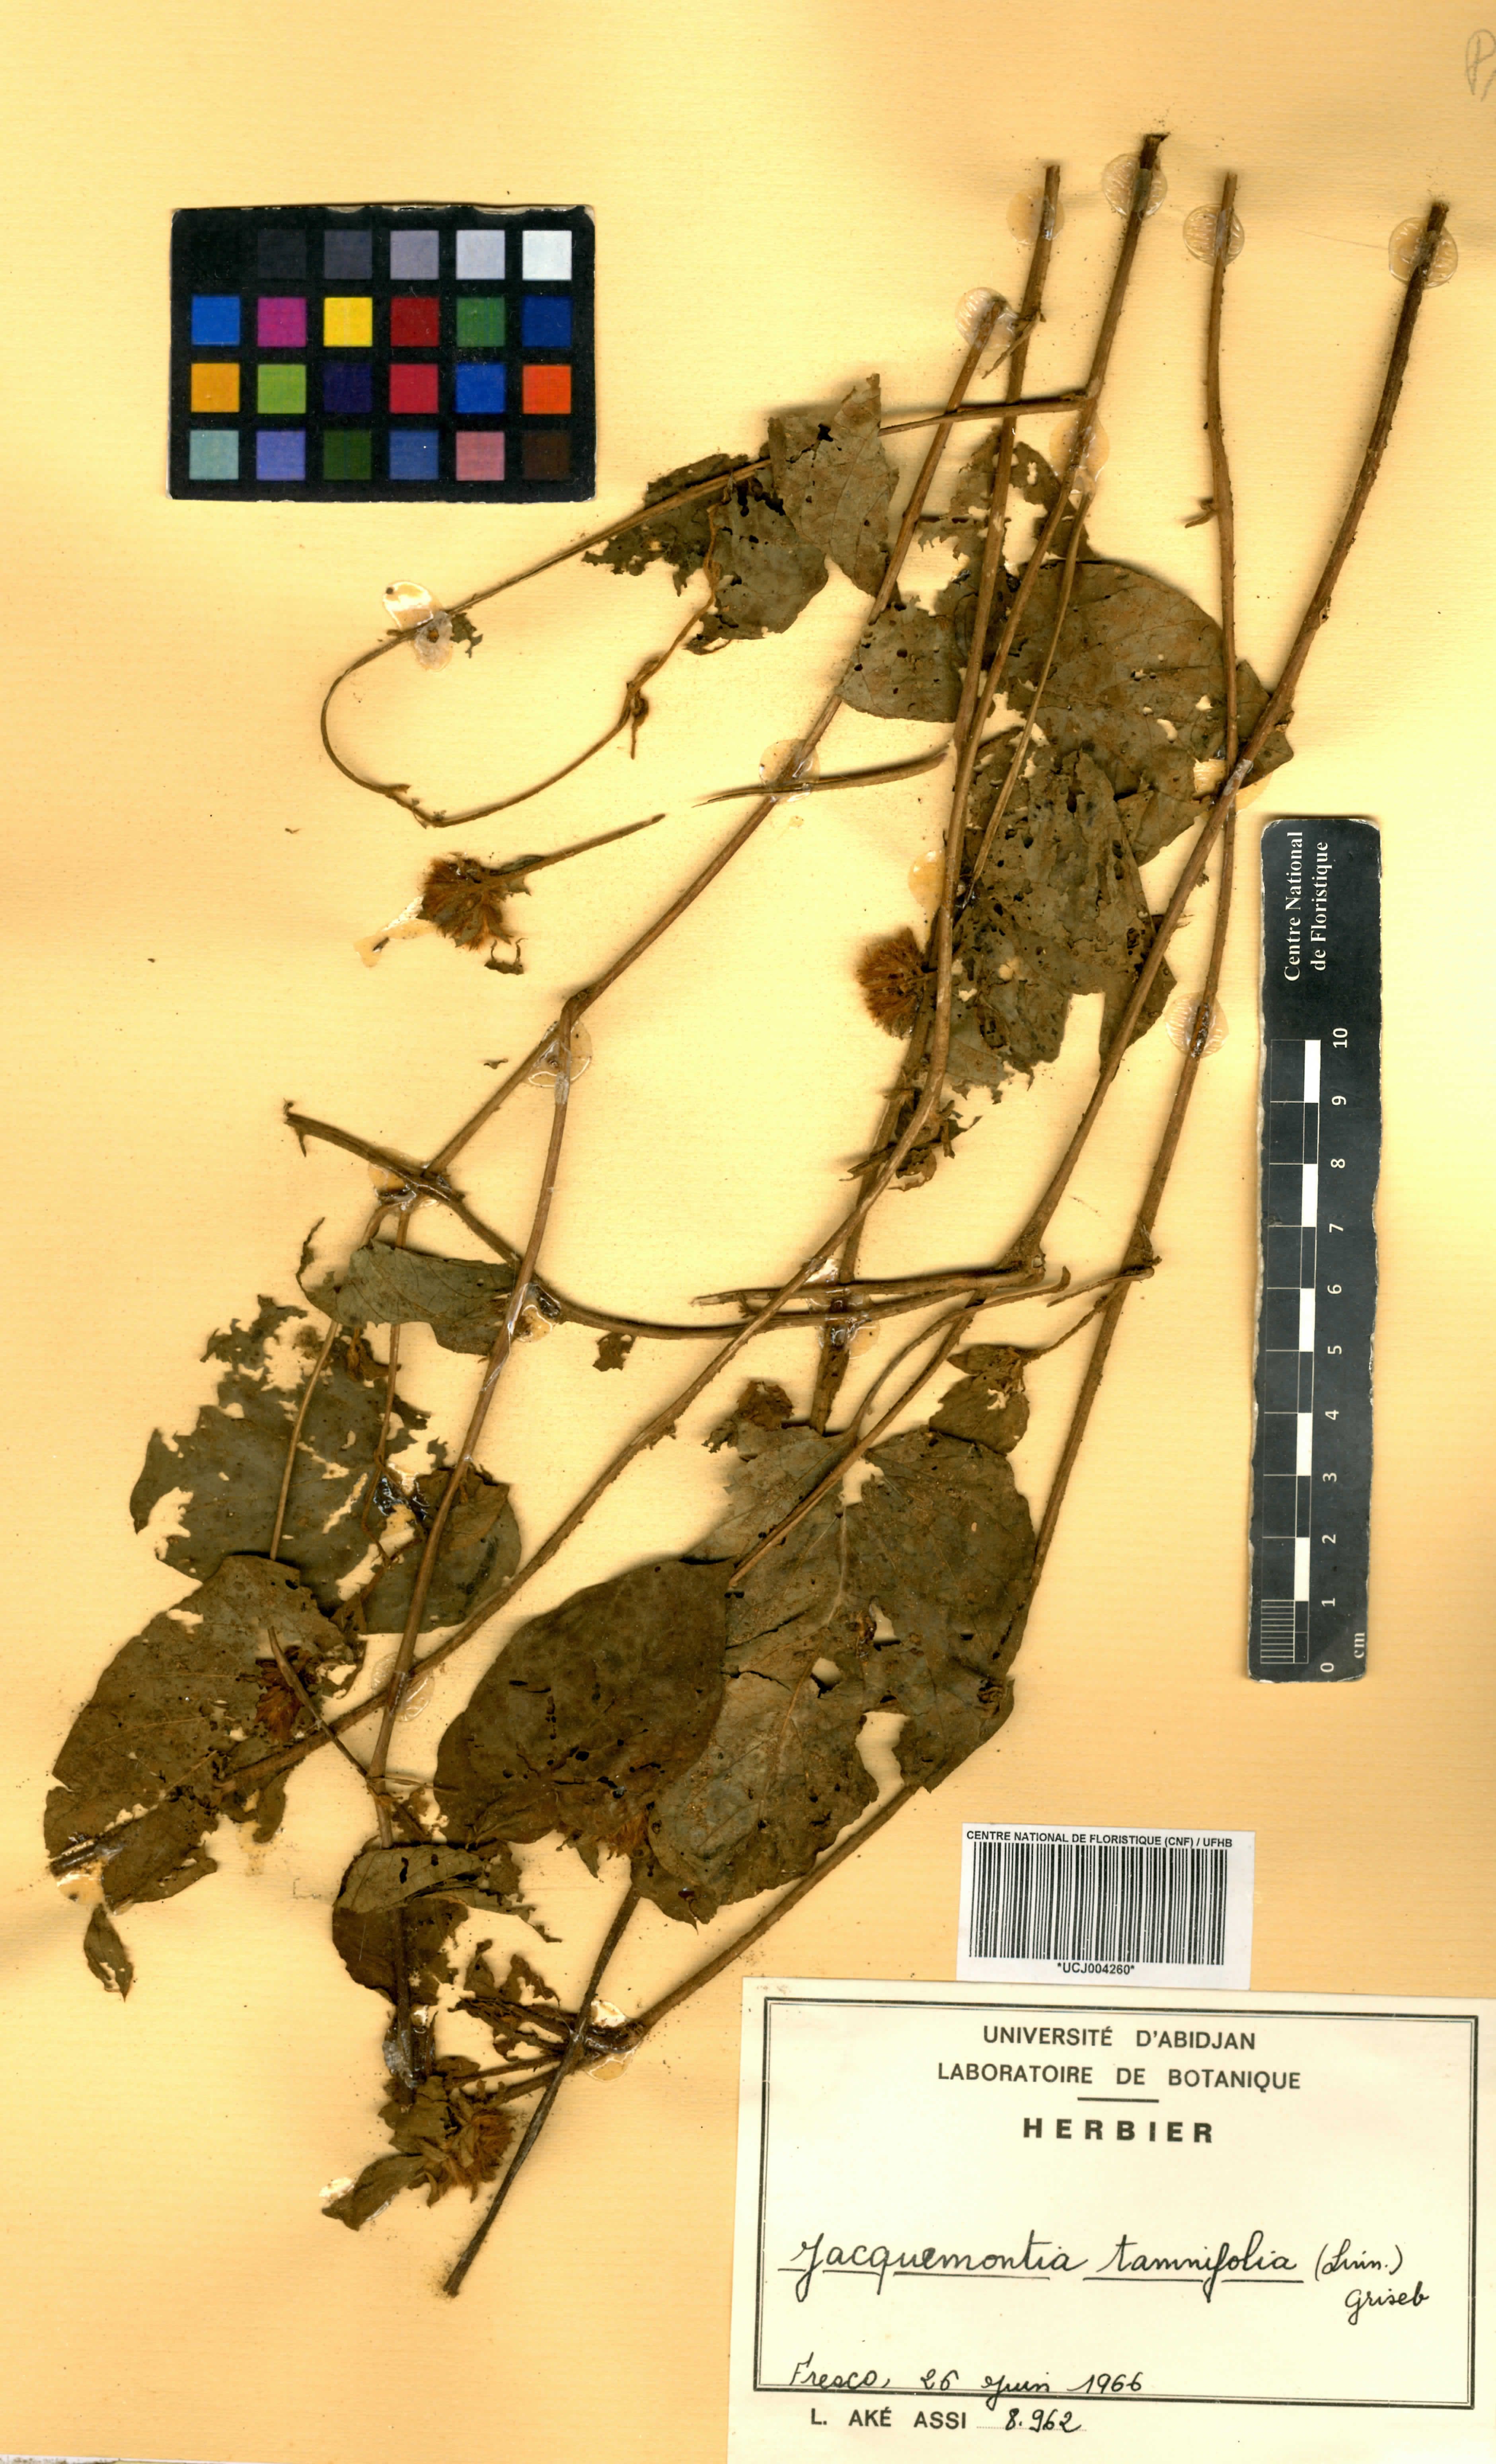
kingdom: Plantae
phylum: Tracheophyta
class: Magnoliopsida
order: Solanales
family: Convolvulaceae
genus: Jacquemontia
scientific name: Jacquemontia tamnifolia
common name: Hairy clustervine
